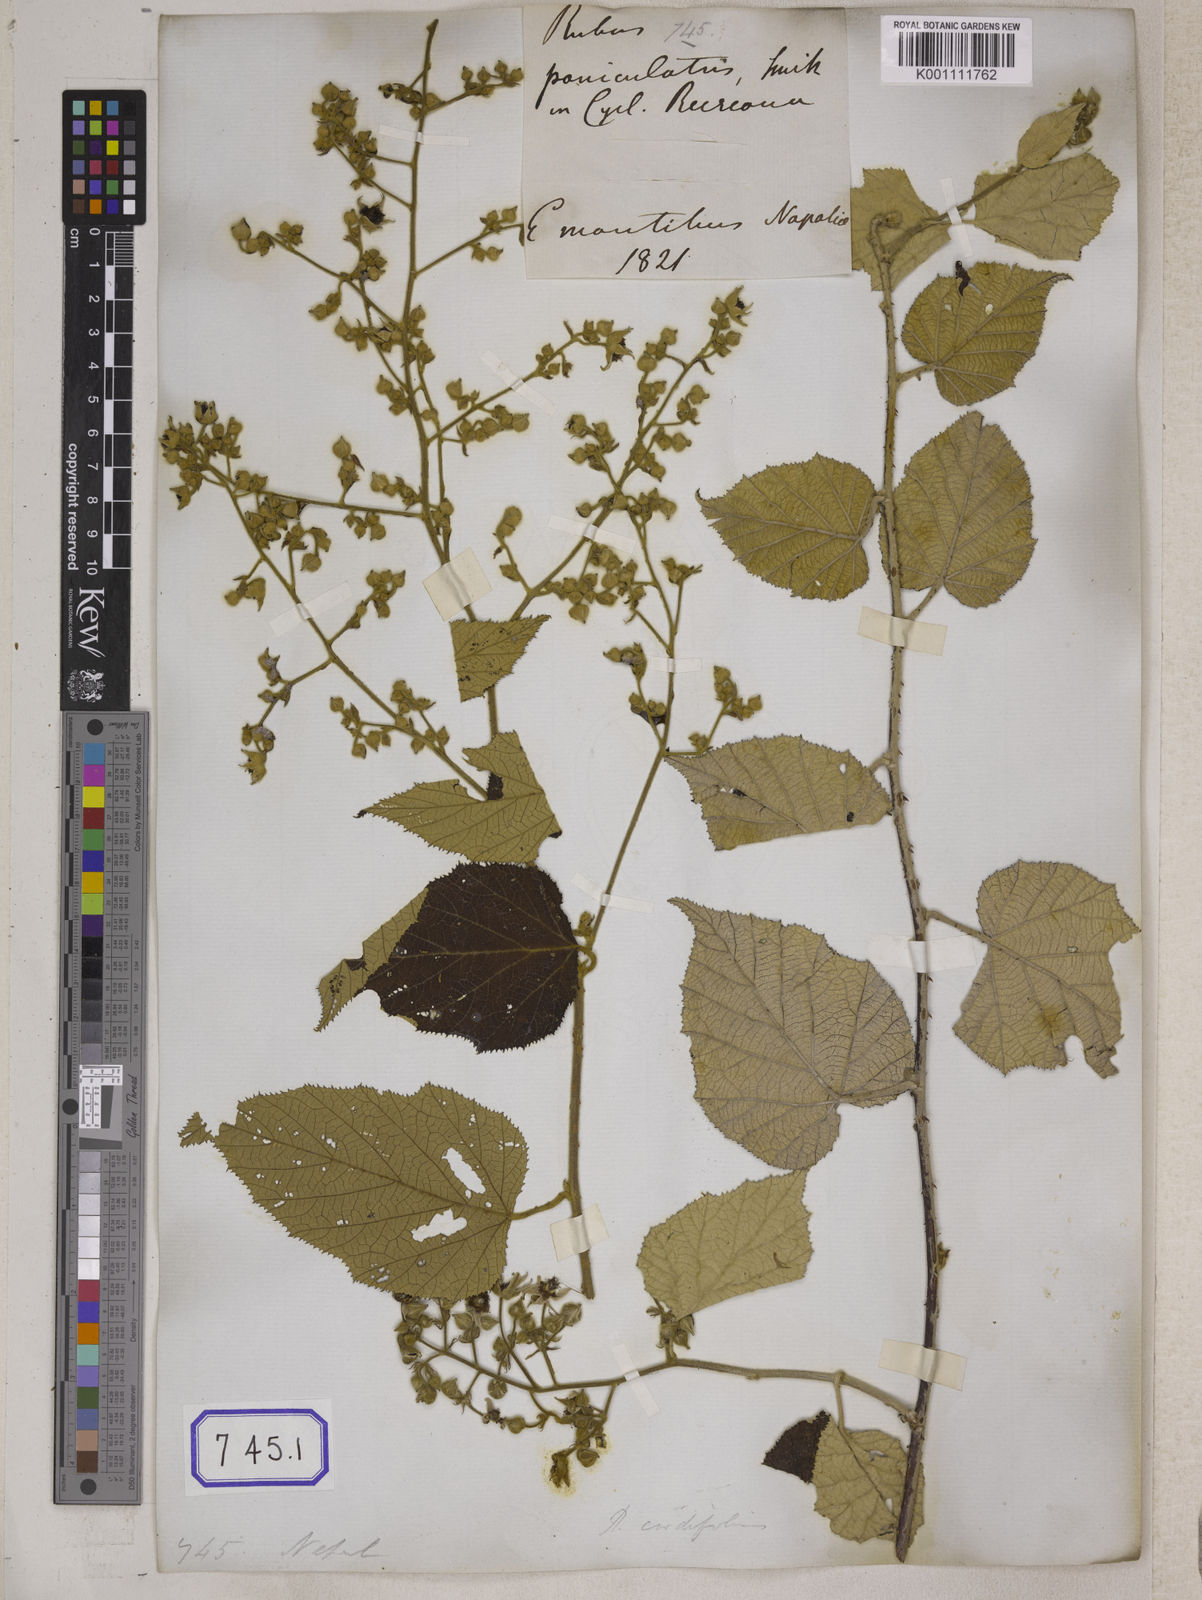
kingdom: Plantae
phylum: Tracheophyta
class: Magnoliopsida
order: Rosales
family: Rosaceae
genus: Rubus
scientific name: Rubus paniculatus
